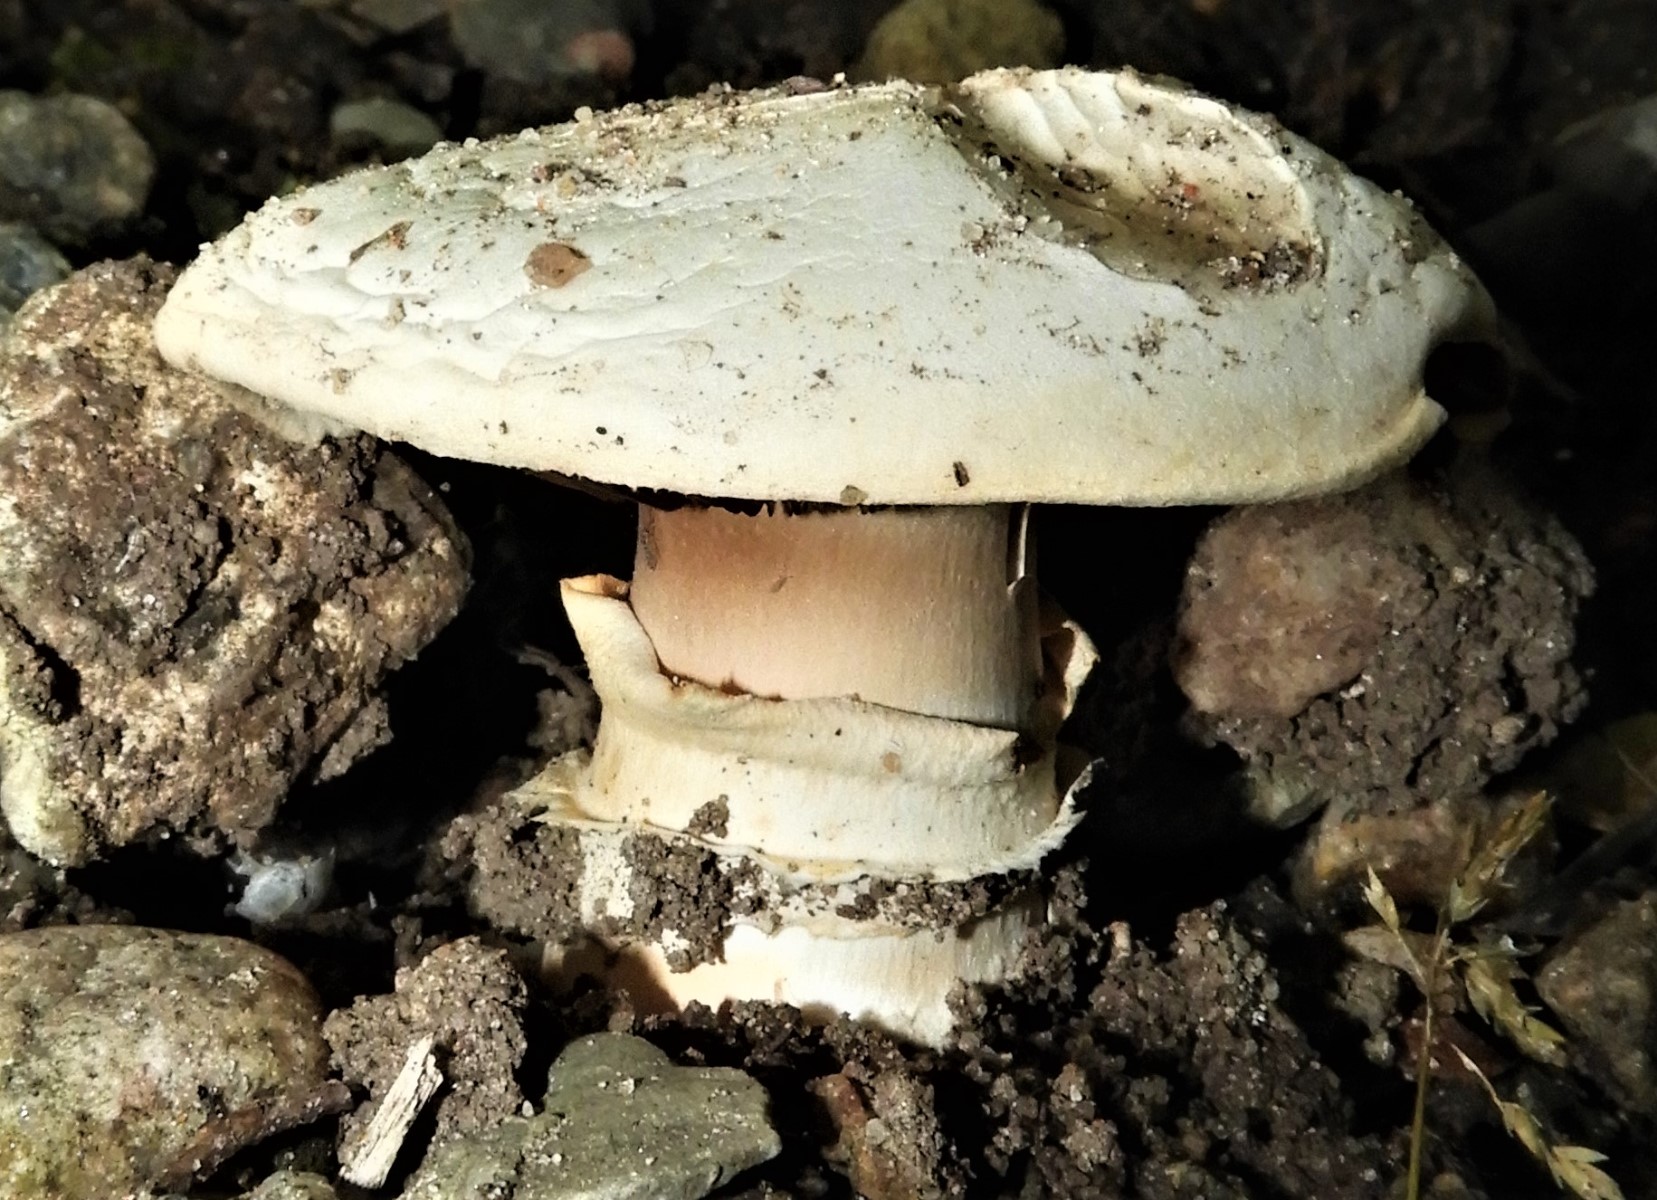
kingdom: Fungi
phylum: Basidiomycota
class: Agaricomycetes
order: Agaricales
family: Agaricaceae
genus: Agaricus
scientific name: Agaricus bitorquis
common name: vej-champignon
